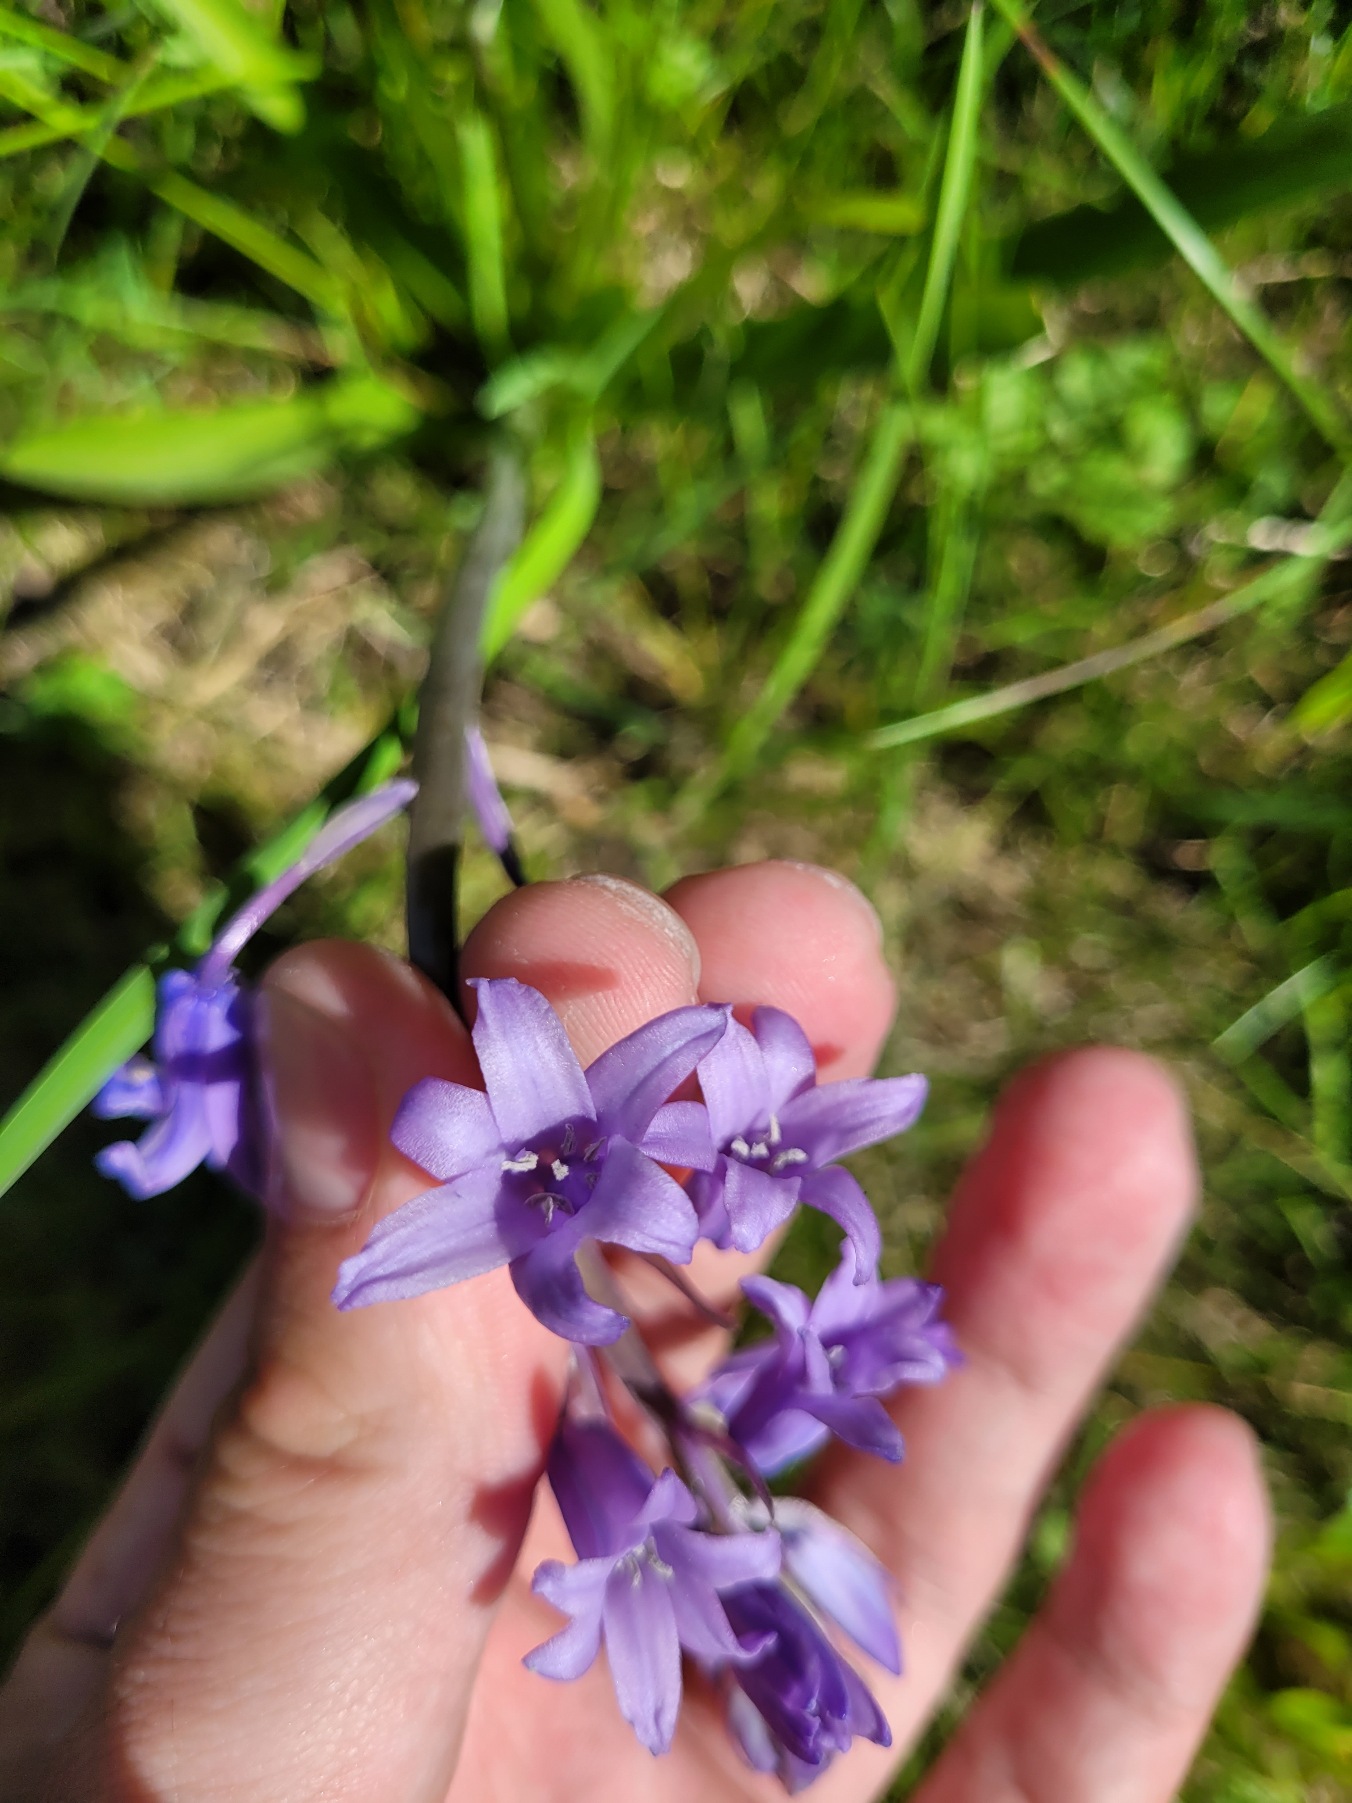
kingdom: Plantae
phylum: Tracheophyta
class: Liliopsida
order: Asparagales
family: Asparagaceae
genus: Hyacinthoides
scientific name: Hyacinthoides massartiana
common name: Hybrid-klokkeskilla
